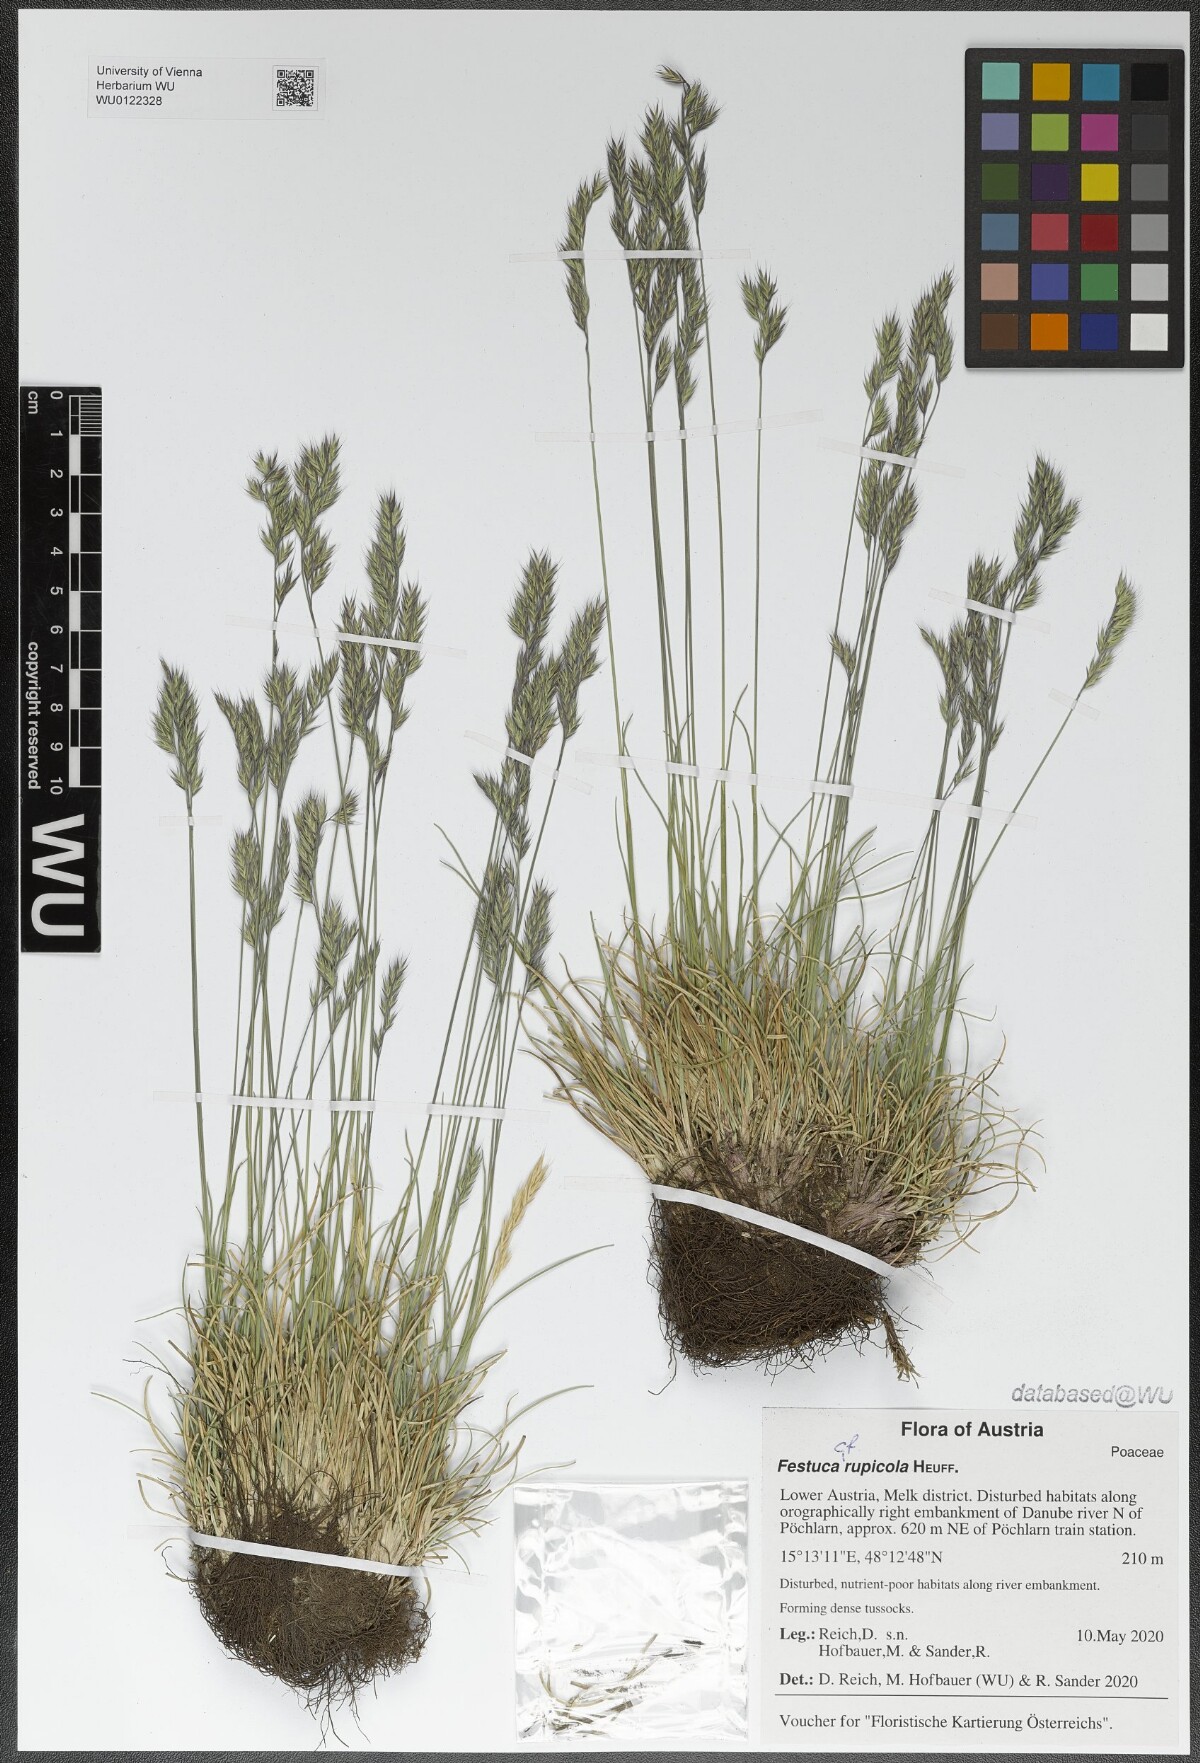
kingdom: Plantae
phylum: Tracheophyta
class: Liliopsida
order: Poales
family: Poaceae
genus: Festuca
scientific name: Festuca rupicola
